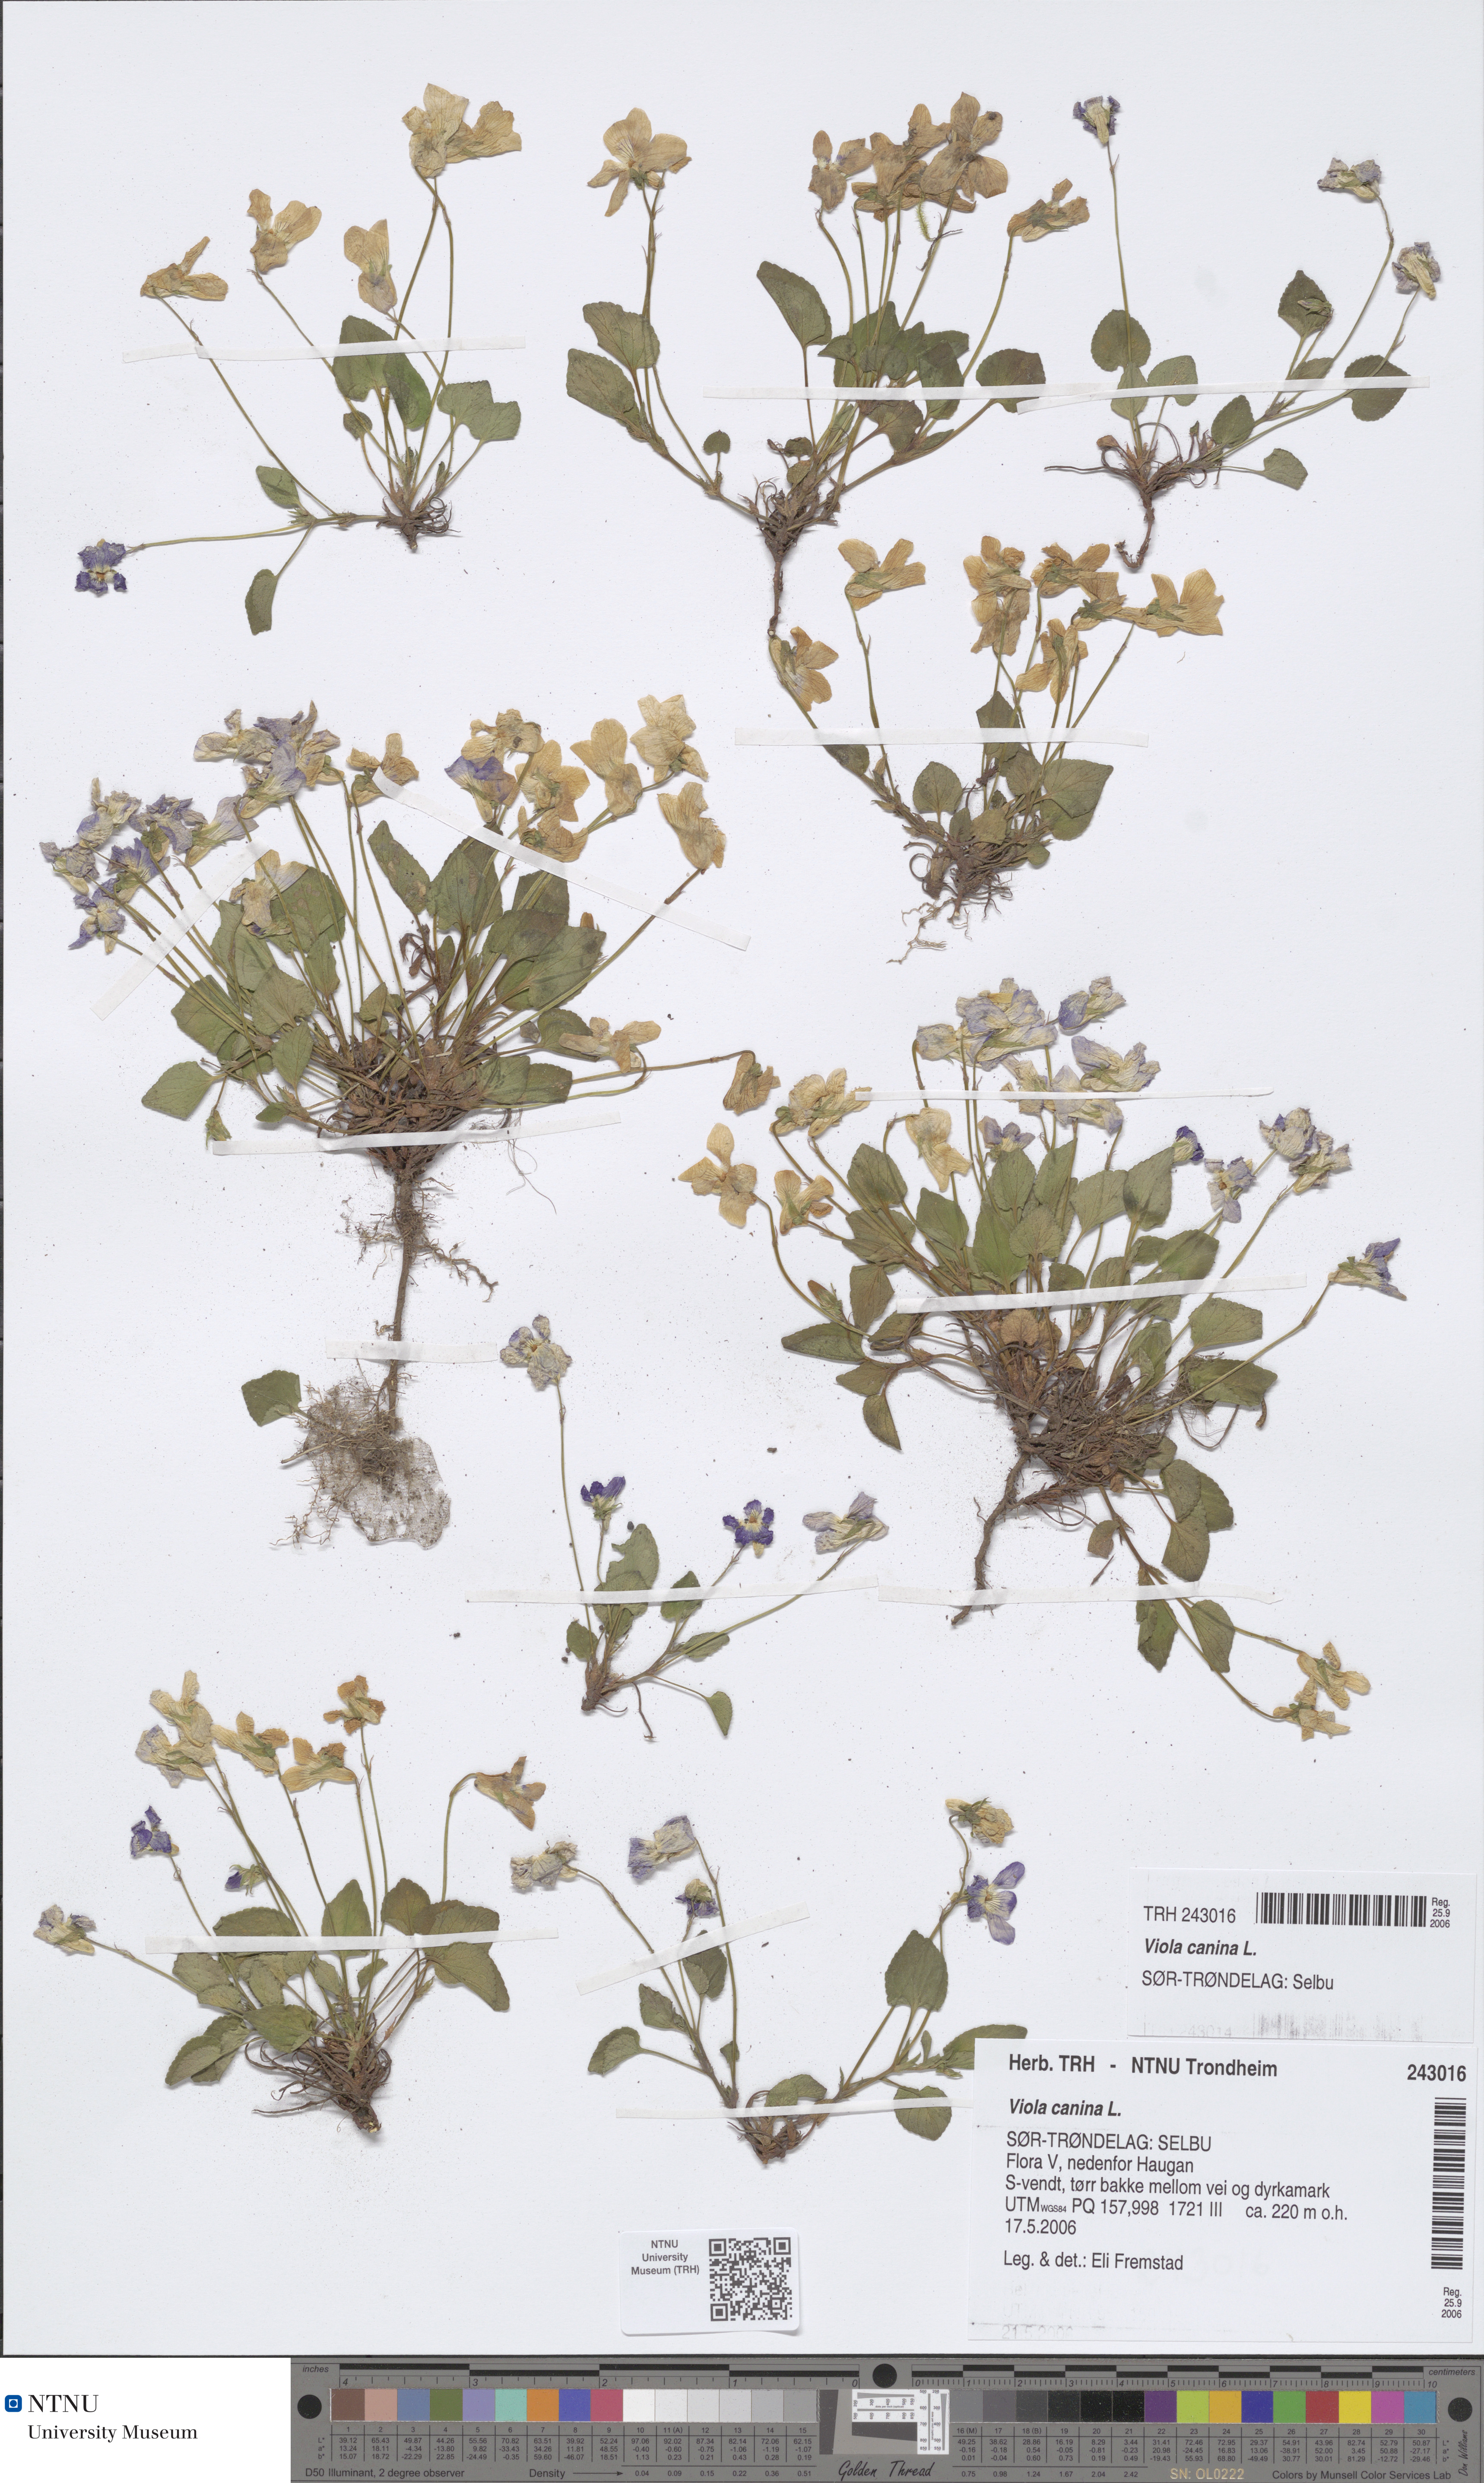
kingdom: Plantae
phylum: Tracheophyta
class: Magnoliopsida
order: Malpighiales
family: Violaceae
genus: Viola
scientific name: Viola canina
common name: Heath dog-violet
